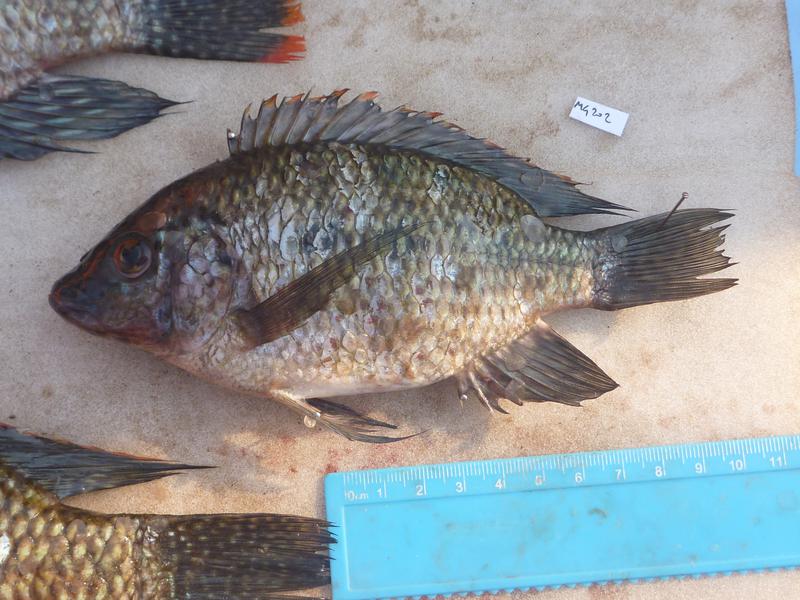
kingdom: Animalia
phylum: Chordata
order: Perciformes
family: Cichlidae
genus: Oreochromis
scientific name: Oreochromis karomo
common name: Karomo
